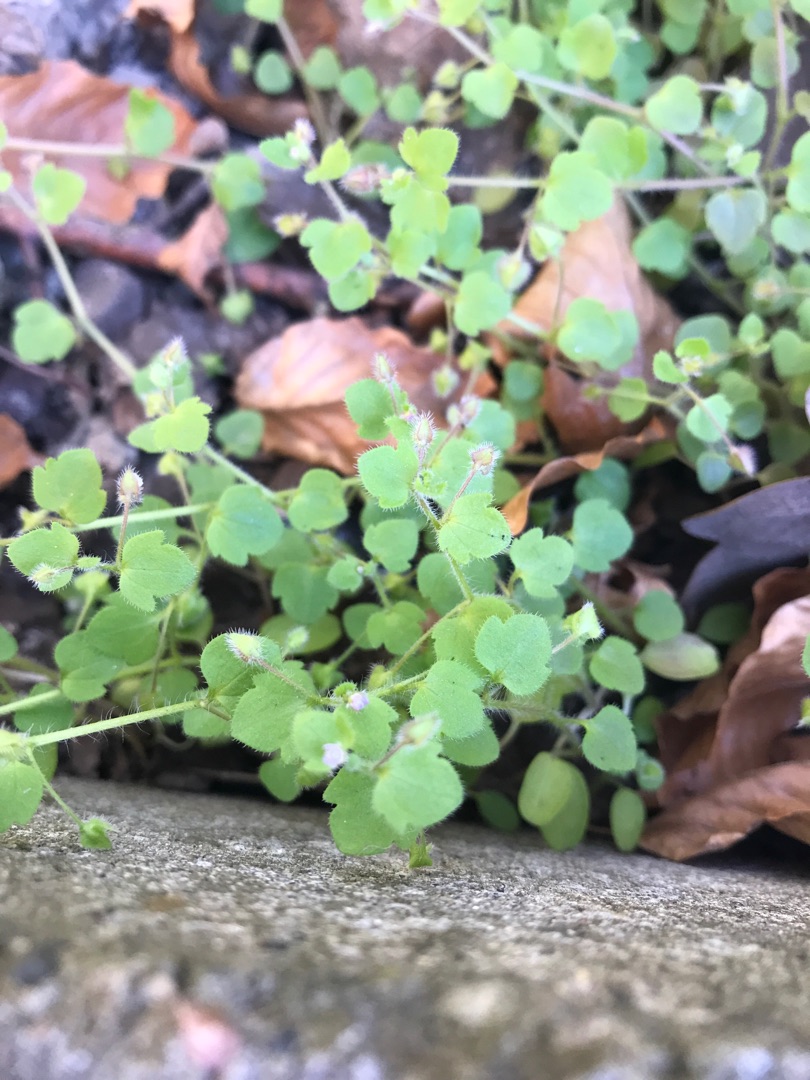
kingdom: Plantae
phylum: Tracheophyta
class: Magnoliopsida
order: Lamiales
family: Plantaginaceae
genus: Veronica
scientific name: Veronica sublobata
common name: Krat-ærenpris
